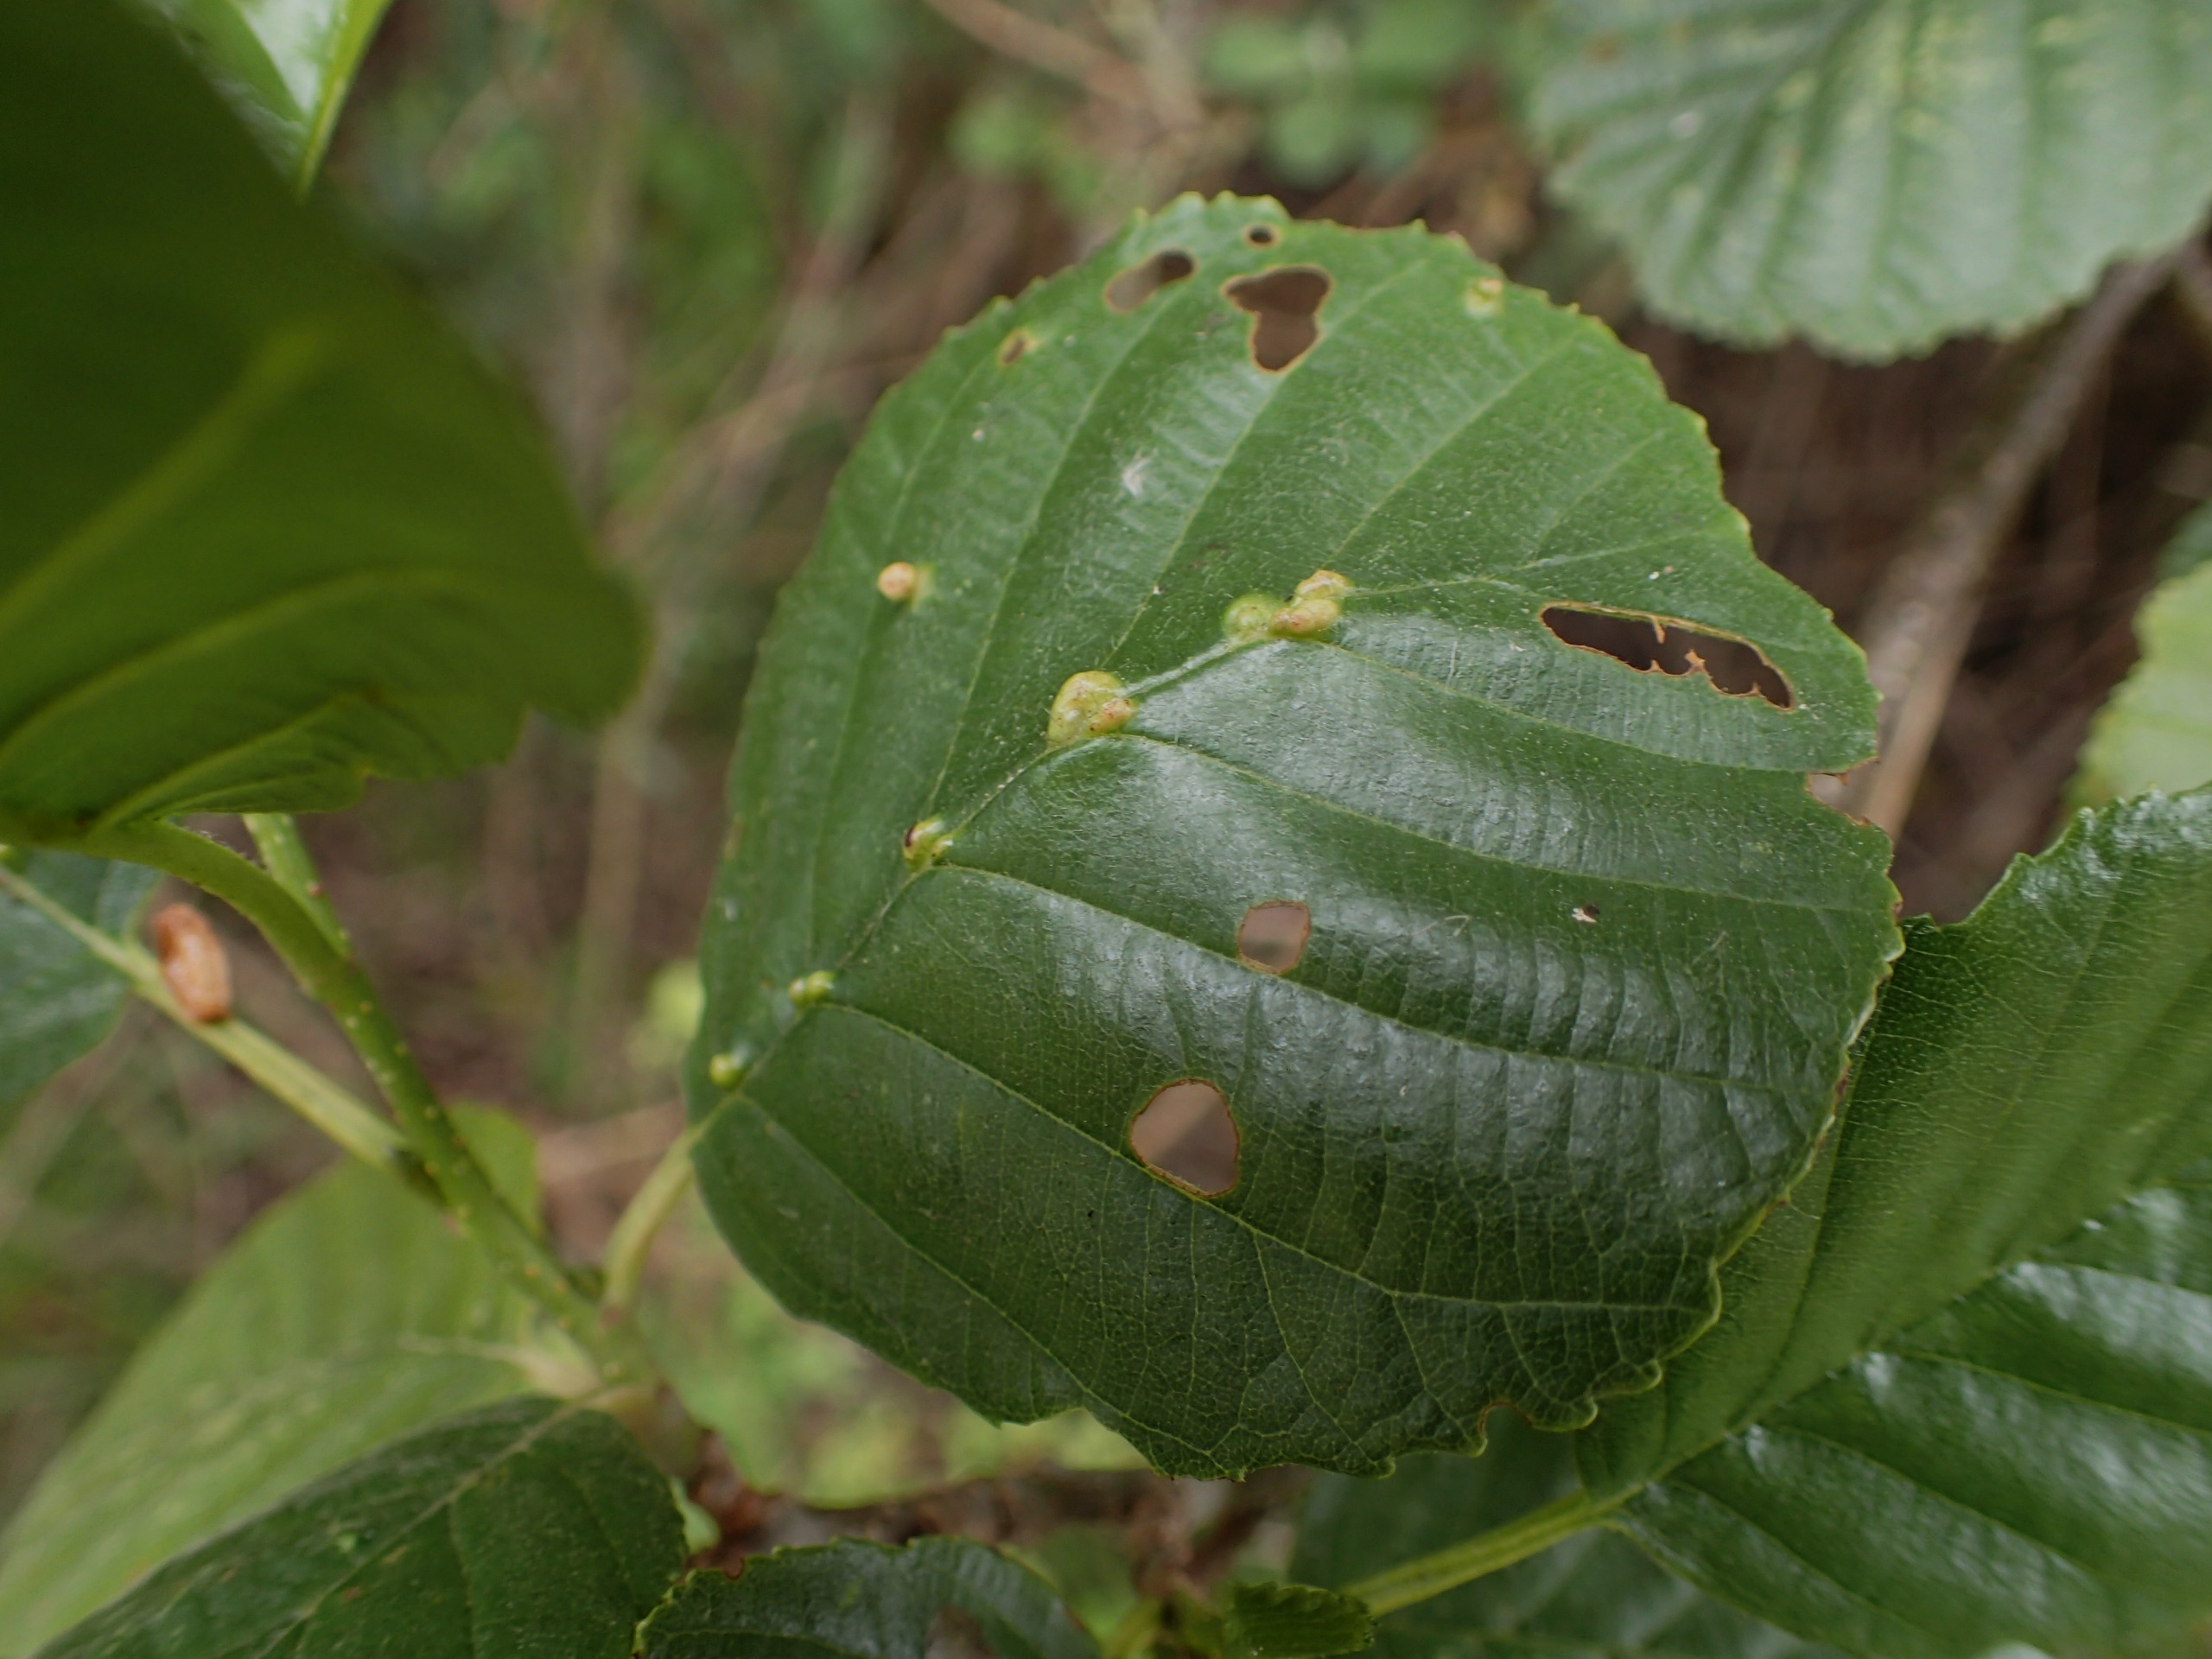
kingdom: Plantae
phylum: Tracheophyta
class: Magnoliopsida
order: Fagales
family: Betulaceae
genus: Alnus
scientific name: Alnus glutinosa
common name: Rød-el
